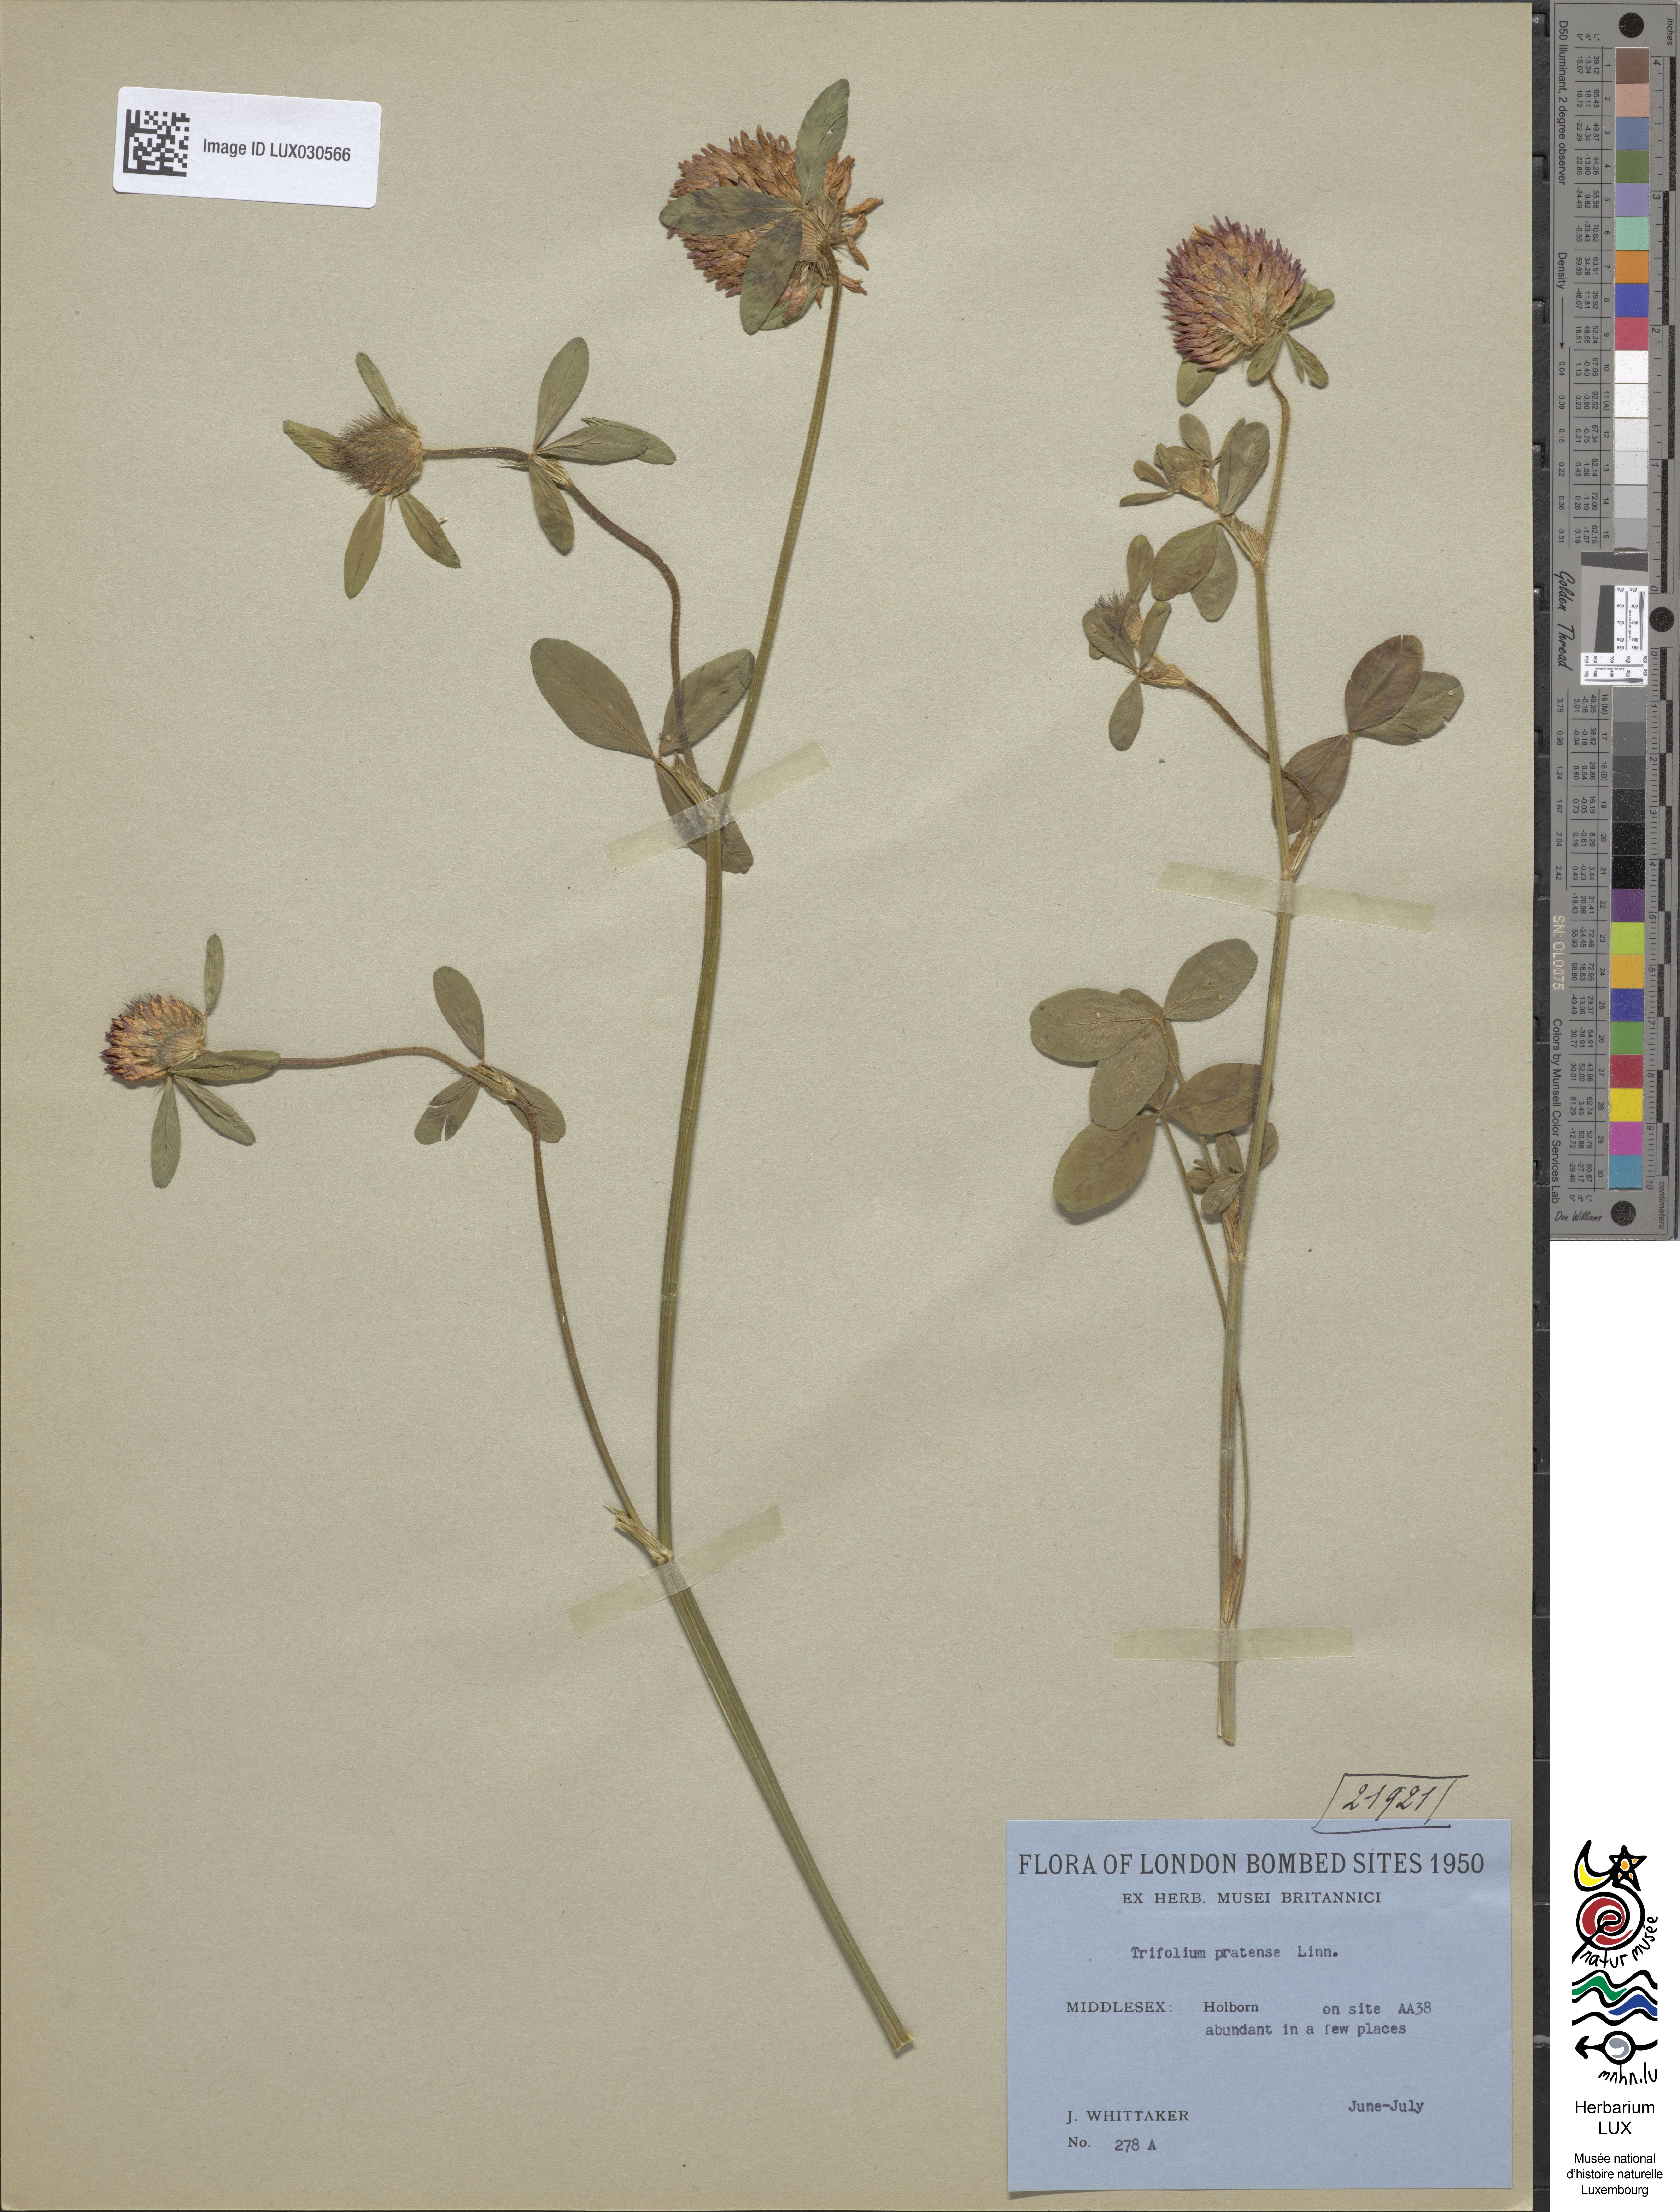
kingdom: Plantae
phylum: Tracheophyta
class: Magnoliopsida
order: Fabales
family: Fabaceae
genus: Trifolium
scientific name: Trifolium pratense
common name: Red clover
